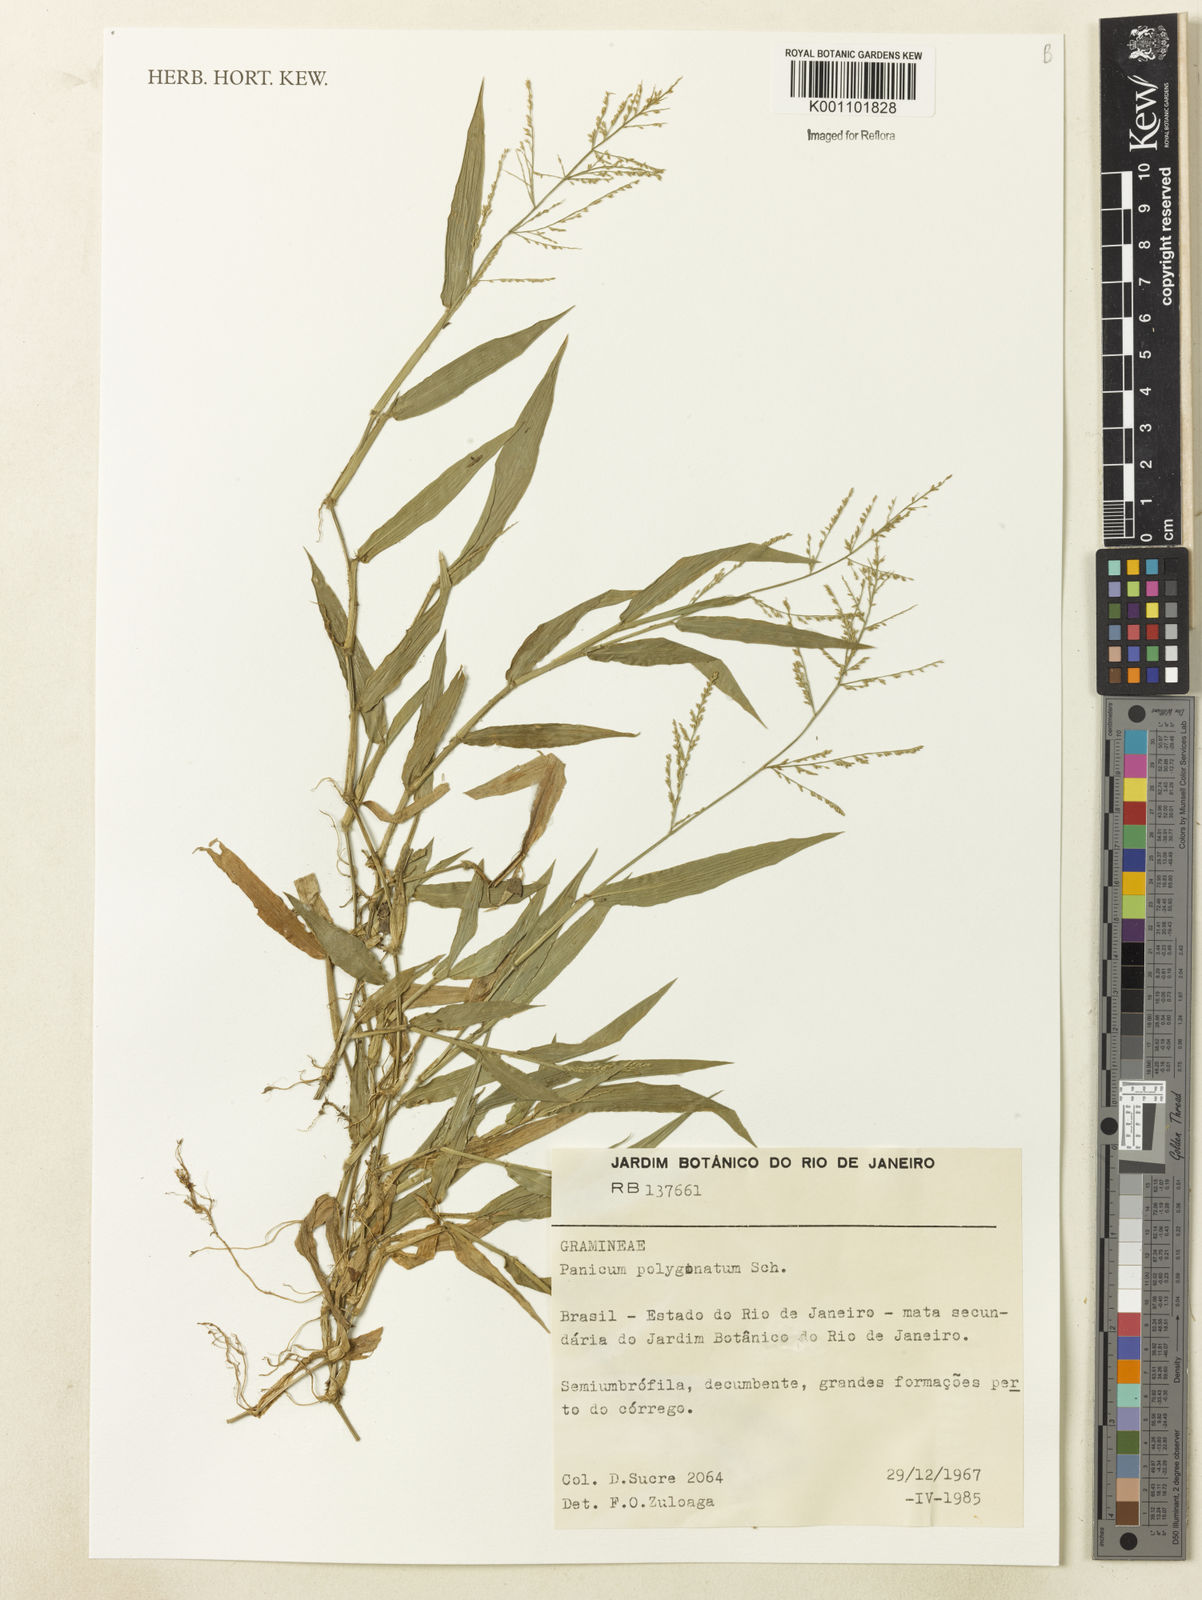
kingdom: Plantae
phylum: Tracheophyta
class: Liliopsida
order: Poales
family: Poaceae
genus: Rugoloa
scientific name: Rugoloa polygonata
